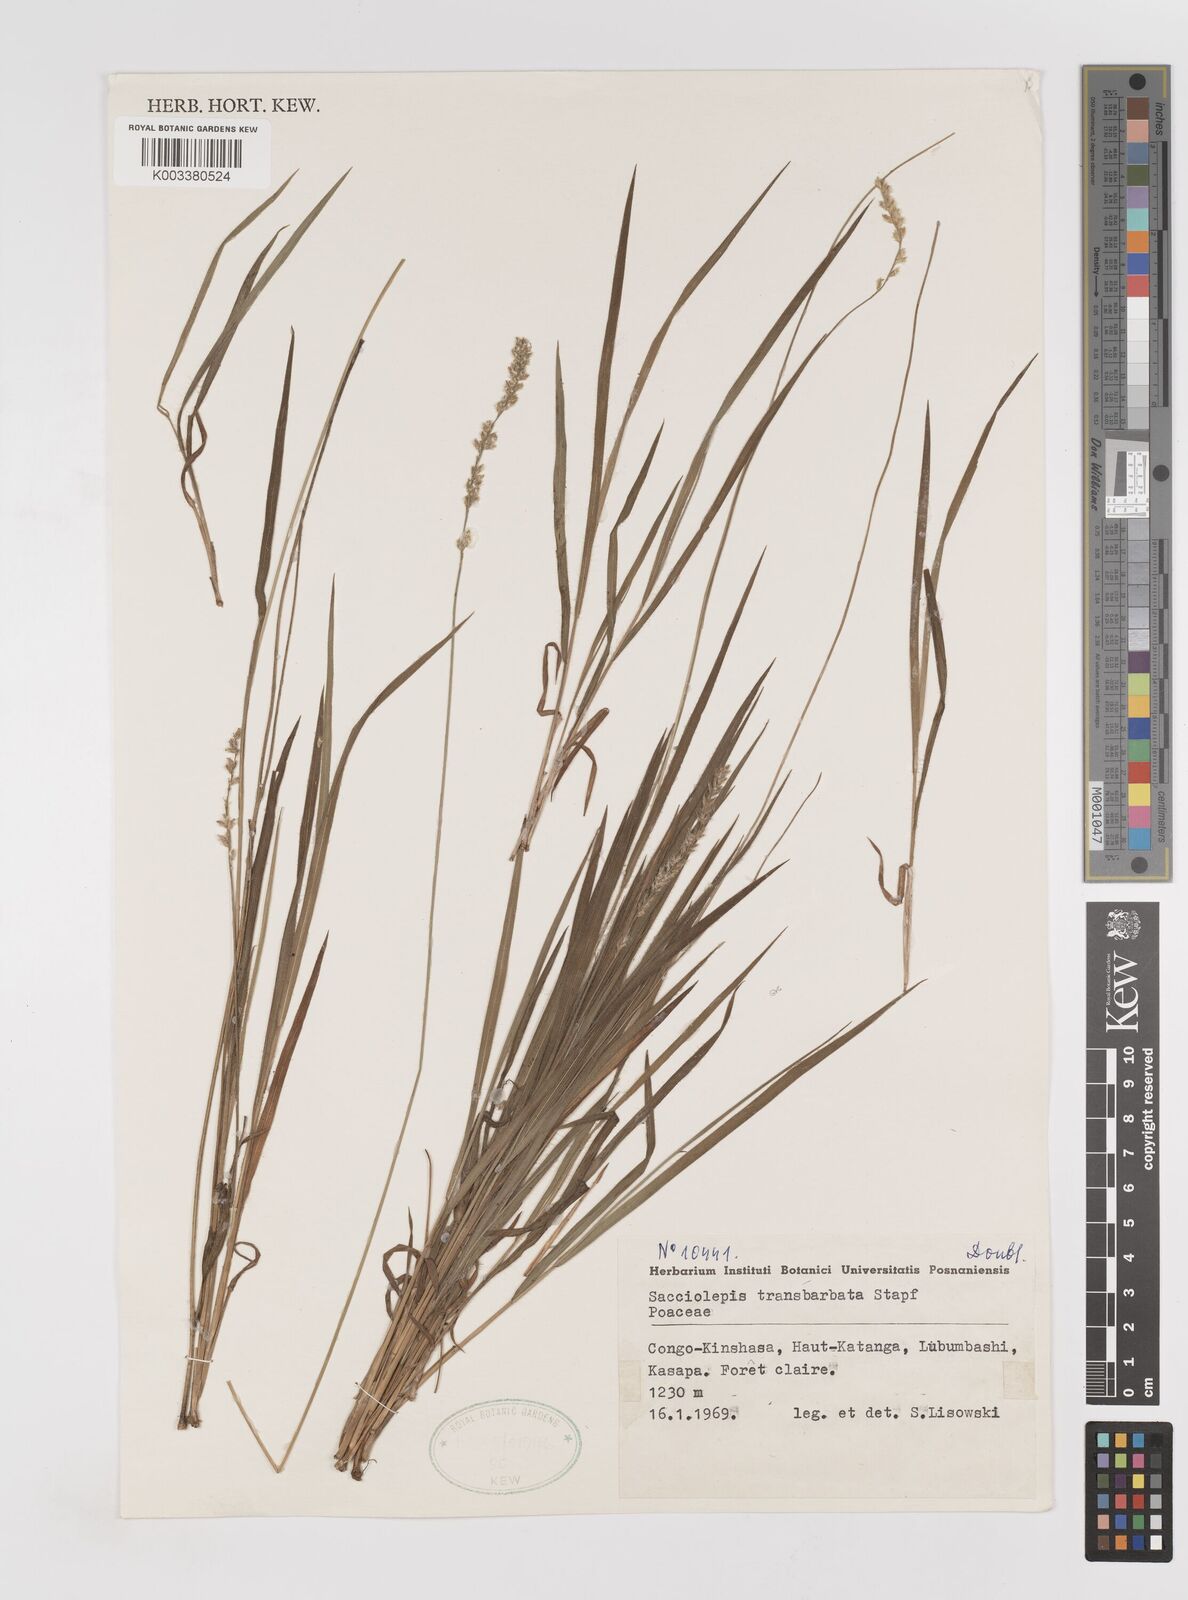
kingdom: Plantae
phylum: Tracheophyta
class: Liliopsida
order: Poales
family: Poaceae
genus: Sacciolepis
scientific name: Sacciolepis transbarbata
